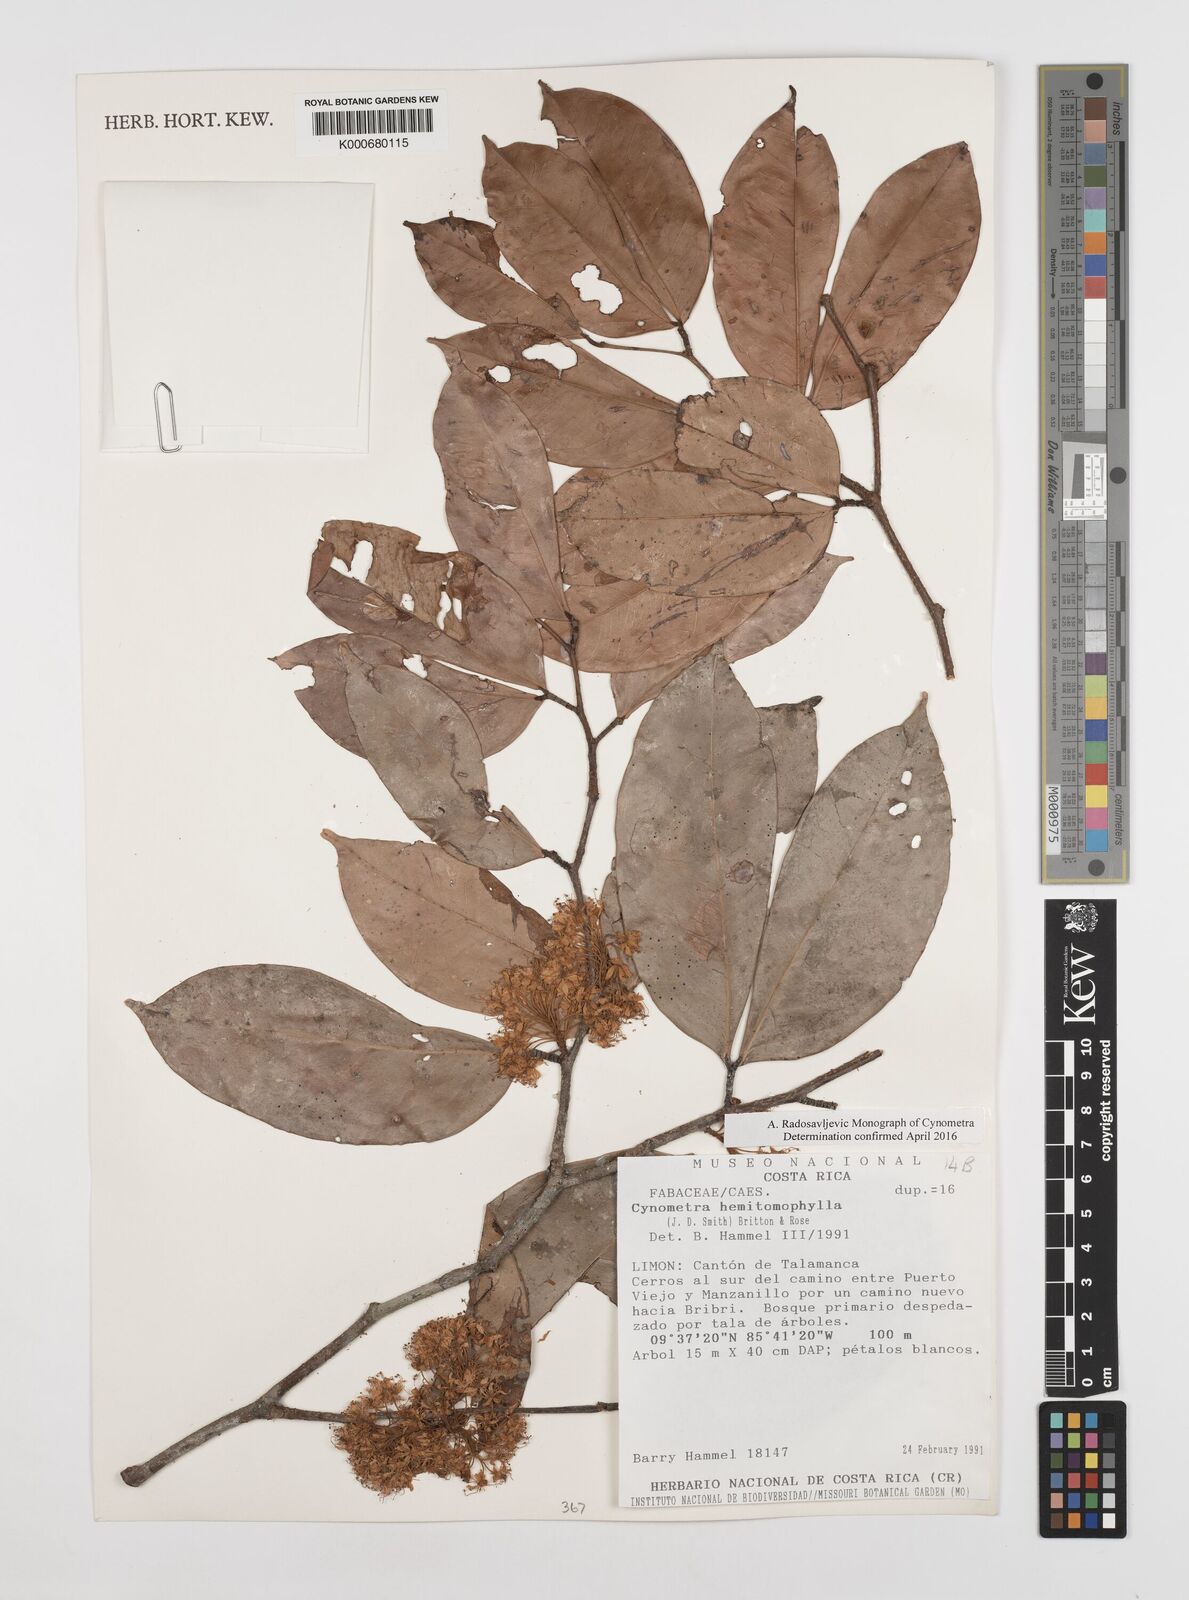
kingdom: Plantae
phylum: Tracheophyta
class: Magnoliopsida
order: Fabales
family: Fabaceae
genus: Cynometra
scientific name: Cynometra hemitomophylla
